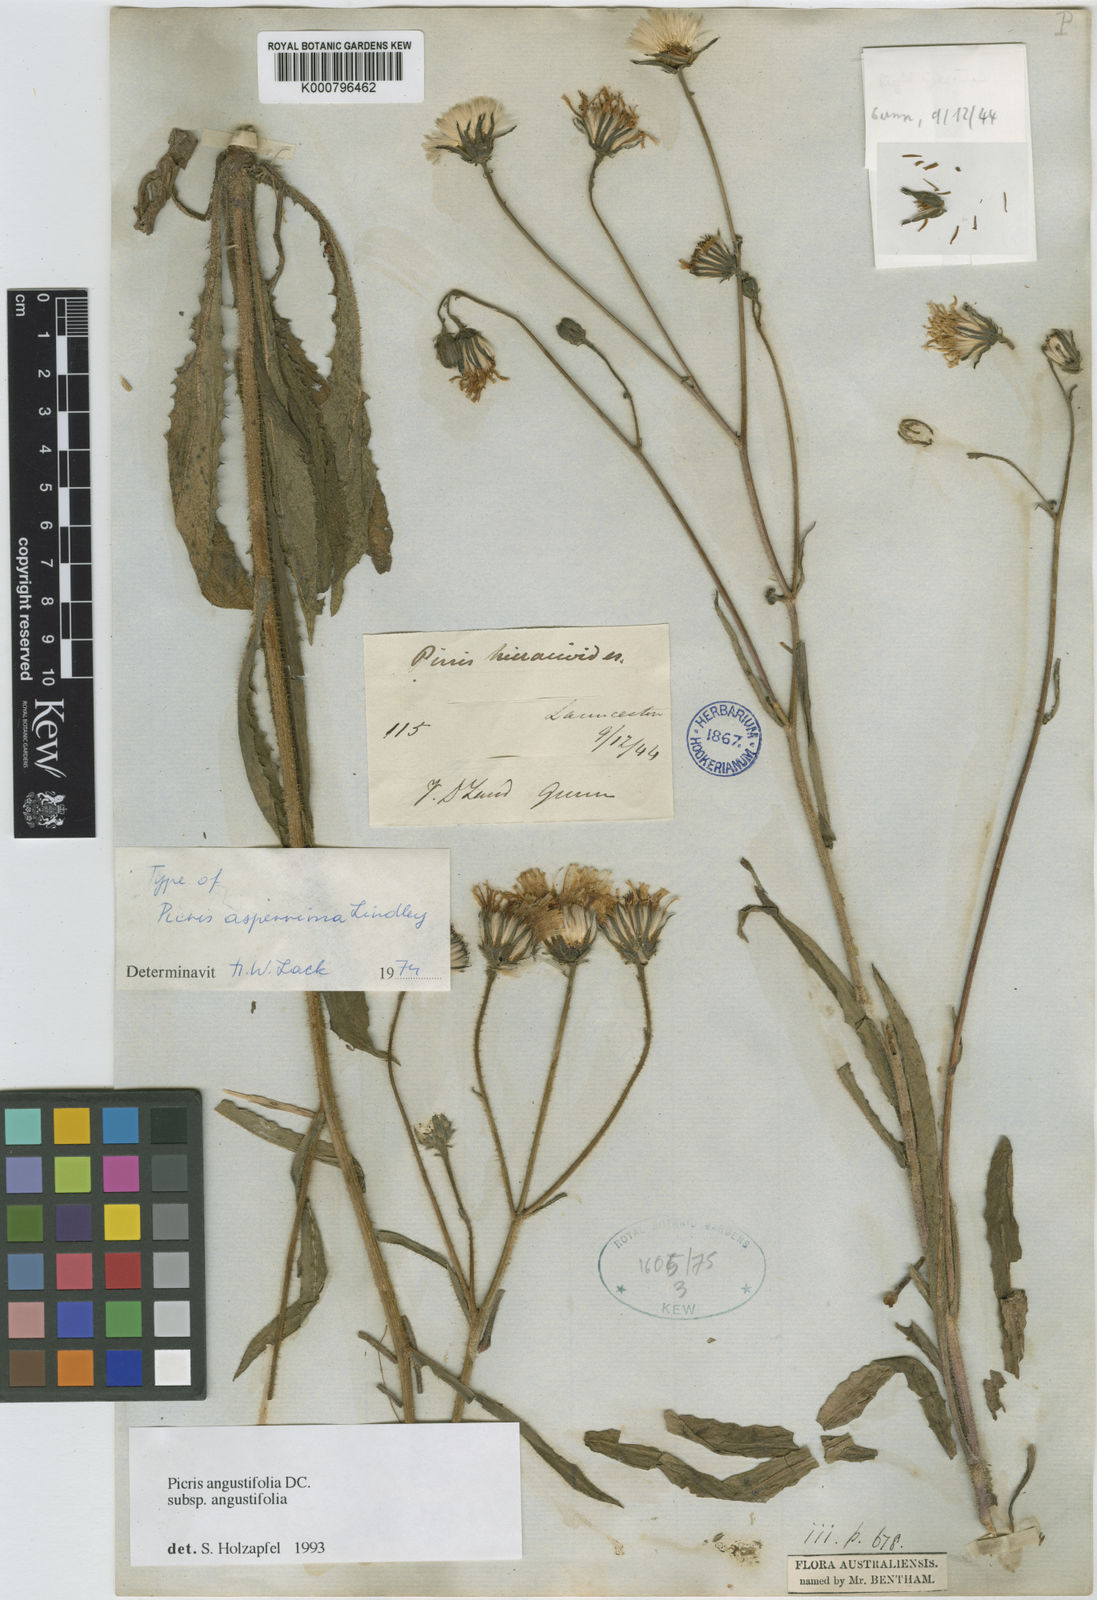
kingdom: Plantae
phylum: Tracheophyta
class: Magnoliopsida
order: Asterales
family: Asteraceae
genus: Picris
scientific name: Picris angustifolia
